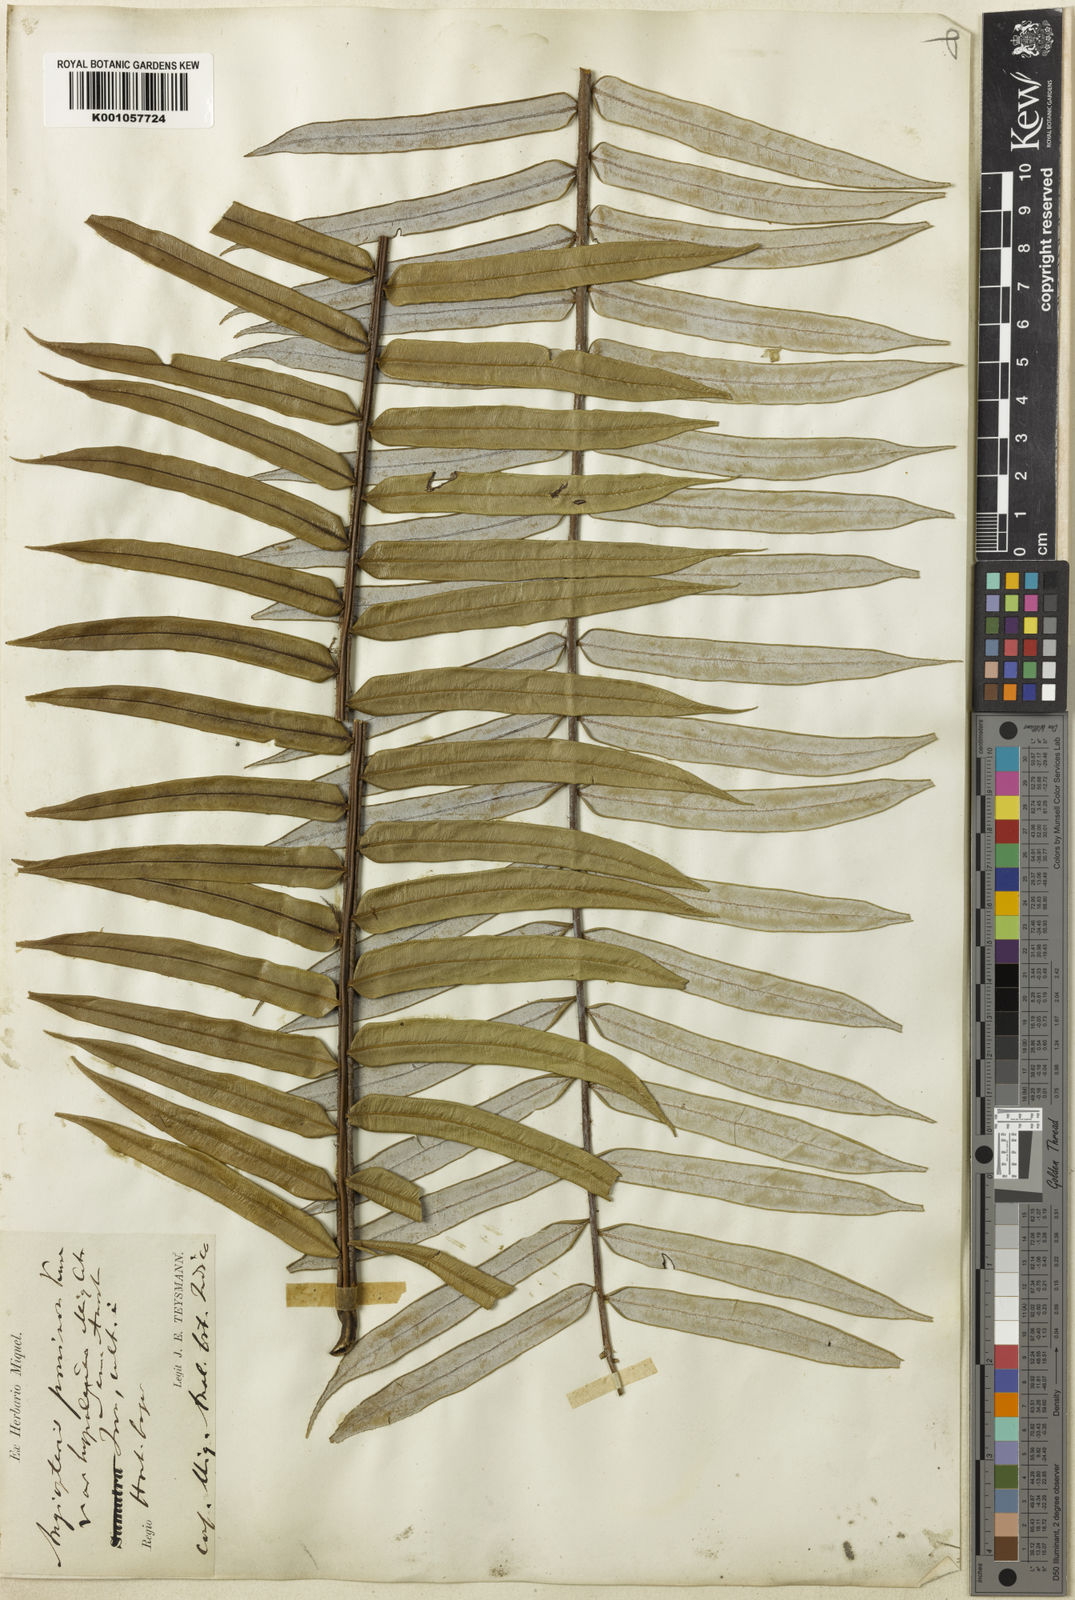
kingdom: Plantae
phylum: Tracheophyta
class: Polypodiopsida
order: Marattiales
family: Marattiaceae
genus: Angiopteris
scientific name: Angiopteris angustifolia
